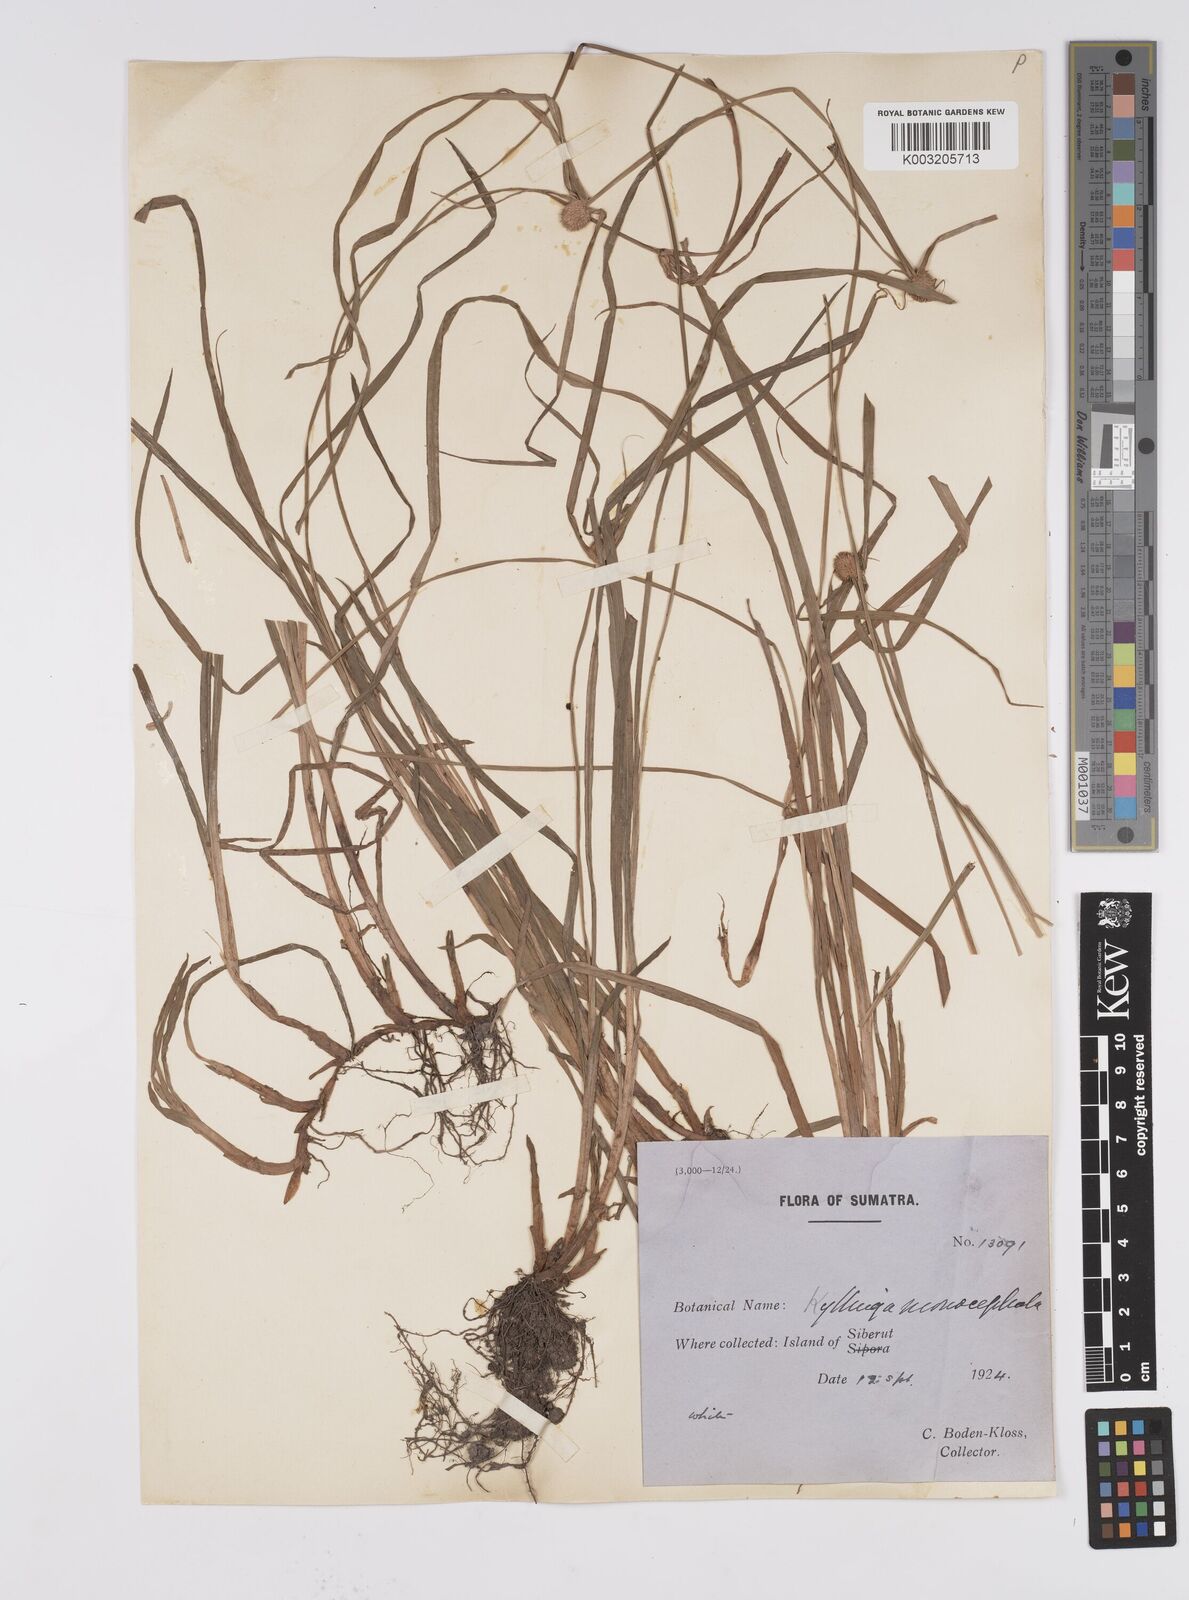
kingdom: Plantae
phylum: Tracheophyta
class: Liliopsida
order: Poales
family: Cyperaceae
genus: Cyperus
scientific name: Cyperus nemoralis
